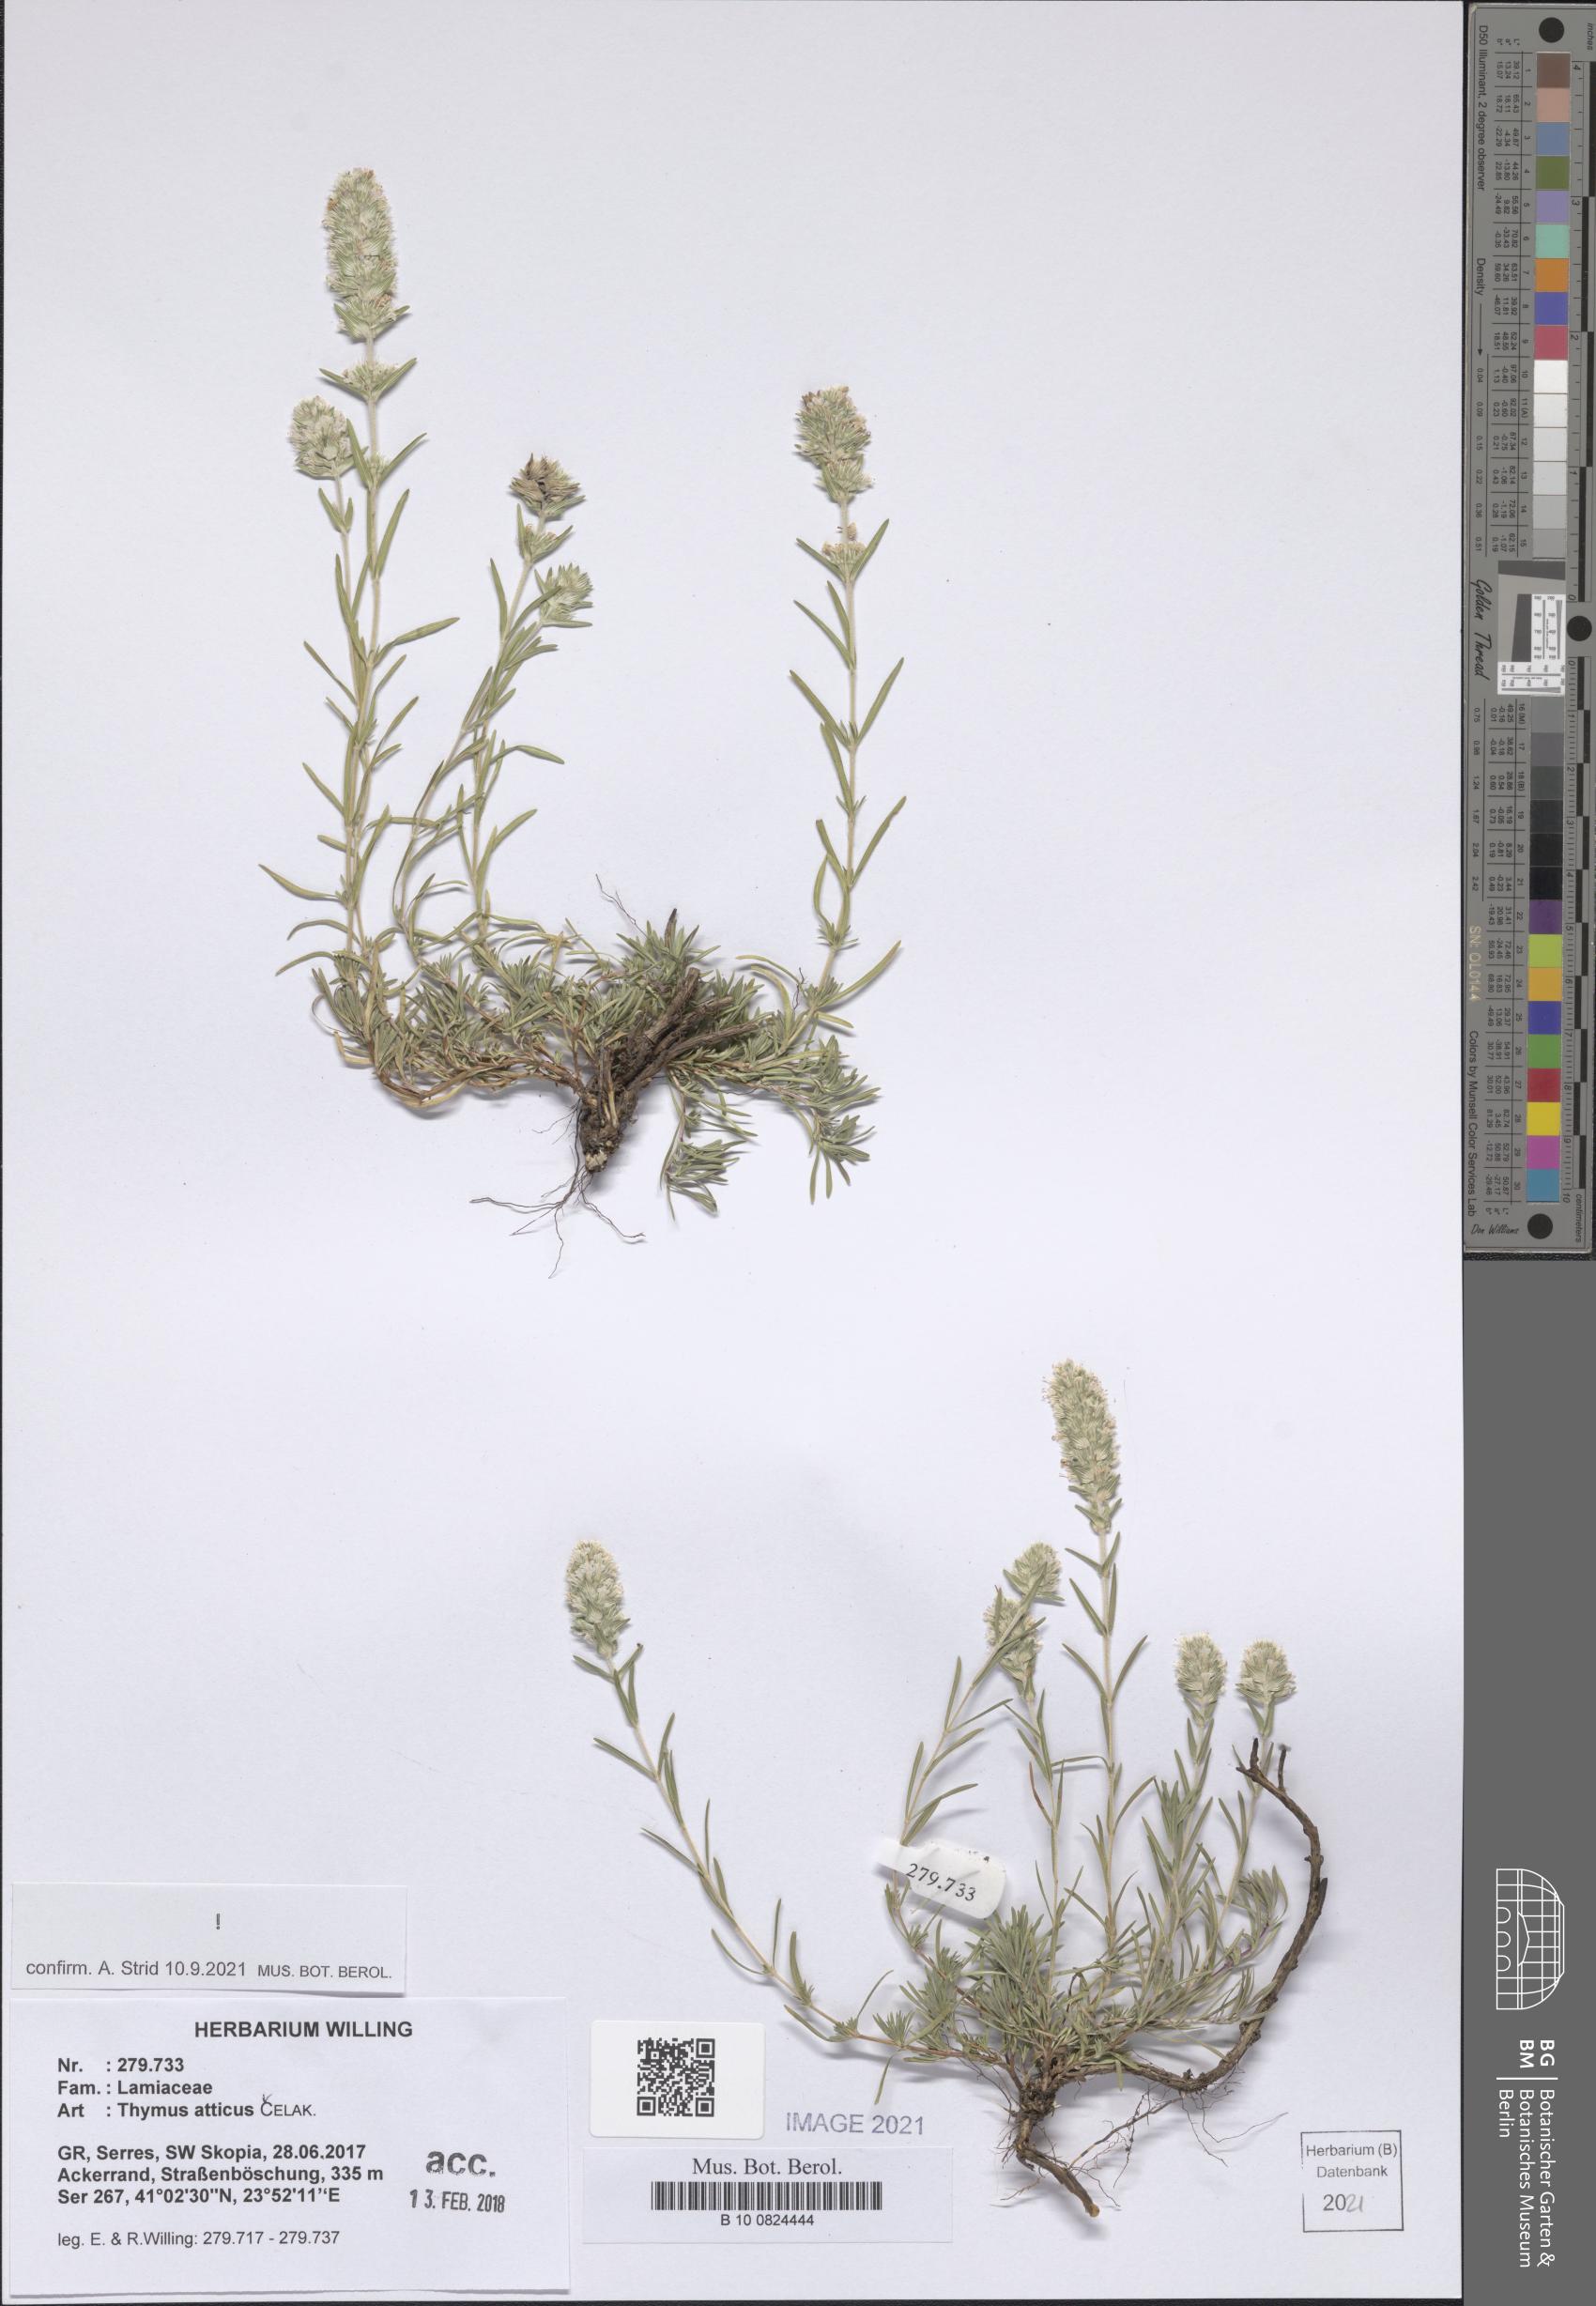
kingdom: Plantae
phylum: Tracheophyta
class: Magnoliopsida
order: Lamiales
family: Lamiaceae
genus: Thymus
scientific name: Thymus atticus
